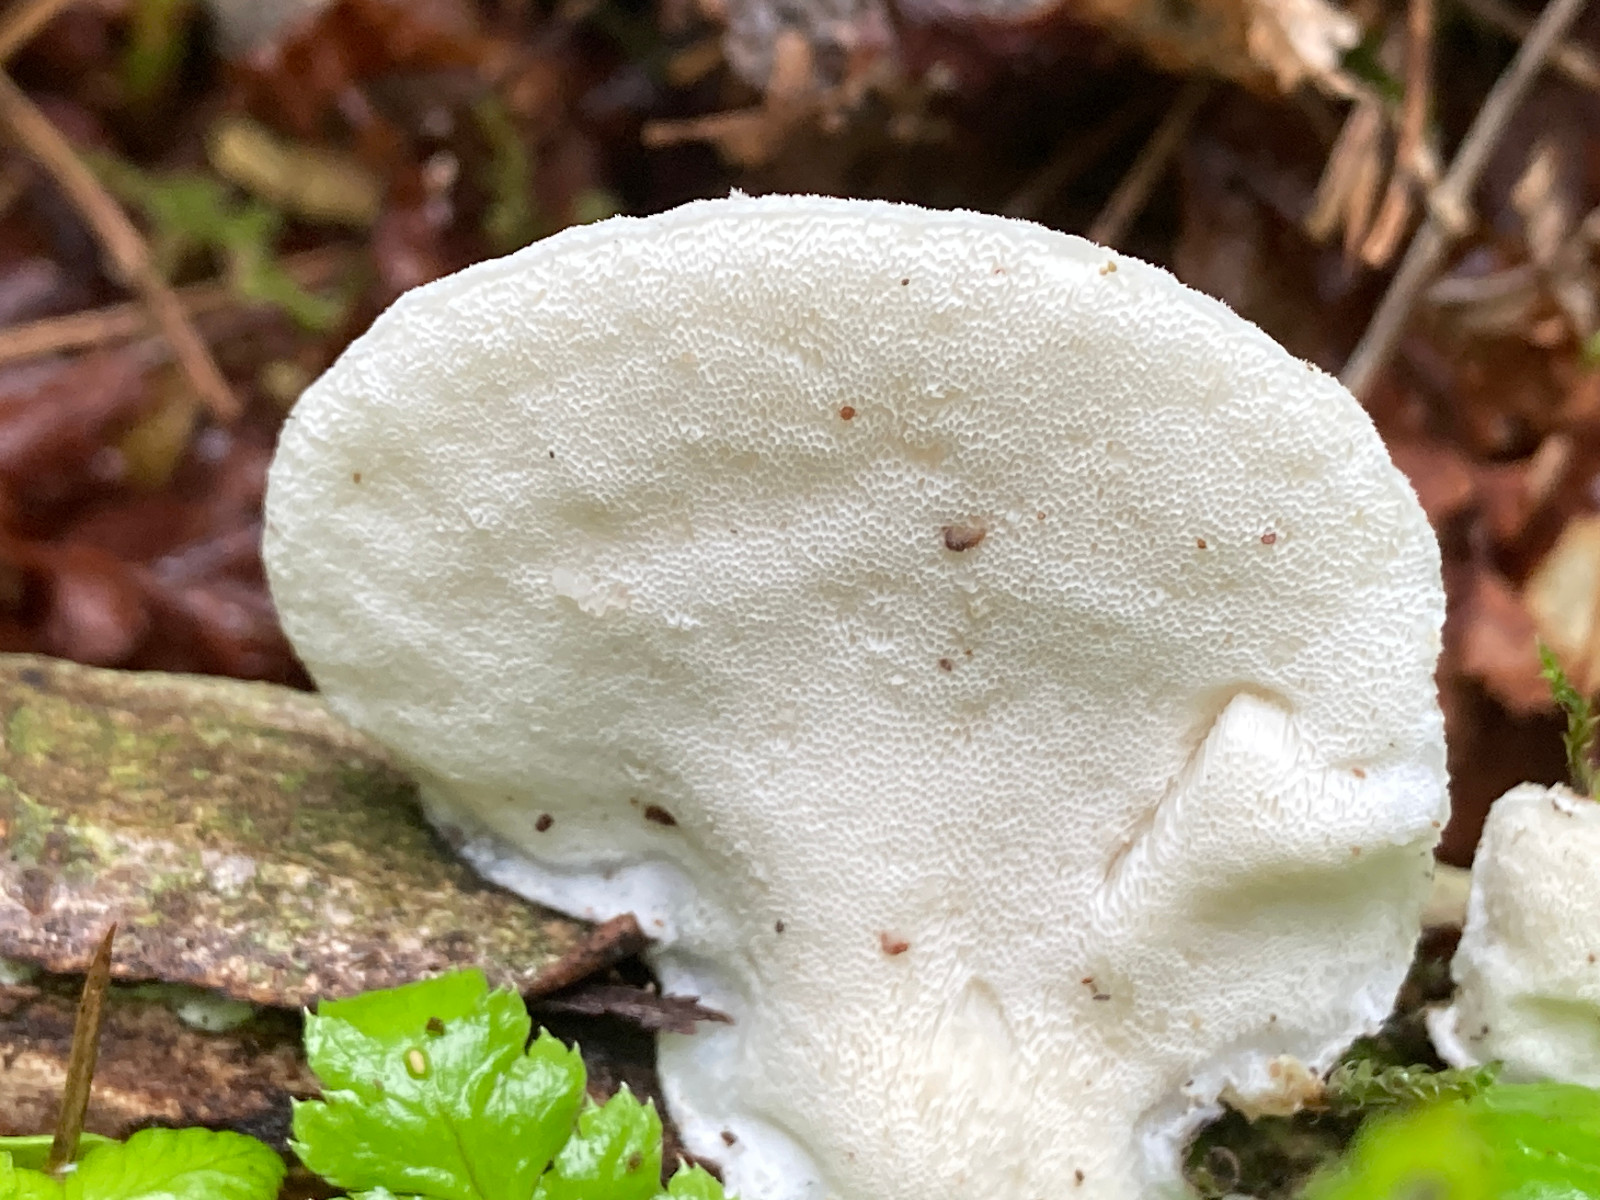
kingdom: Fungi
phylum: Basidiomycota
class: Agaricomycetes
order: Polyporales
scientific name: Polyporales
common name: poresvampordenen
